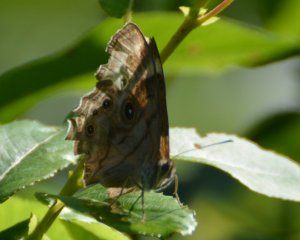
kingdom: Animalia
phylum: Arthropoda
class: Insecta
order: Lepidoptera
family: Nymphalidae
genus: Lethe
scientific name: Lethe anthedon
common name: Northern Pearly-Eye
